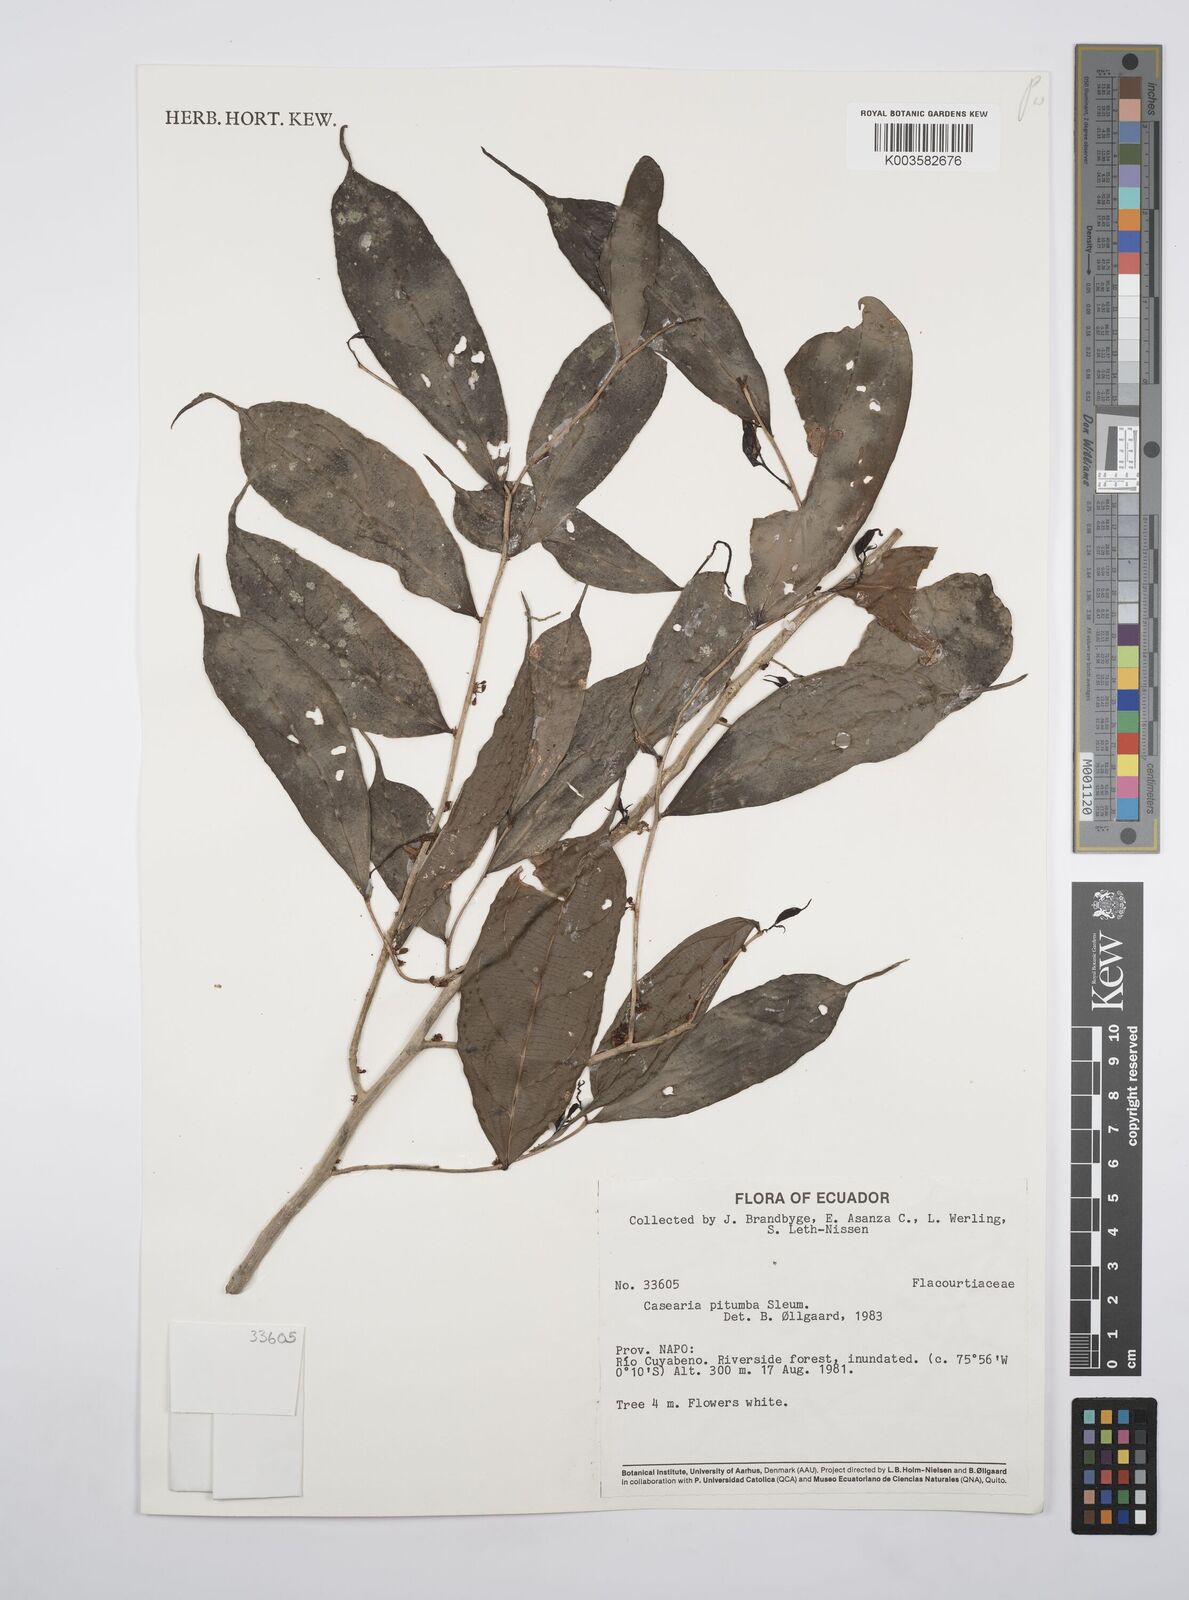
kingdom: Plantae
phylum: Tracheophyta
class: Magnoliopsida
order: Malpighiales
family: Salicaceae
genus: Casearia
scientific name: Casearia pitumba
